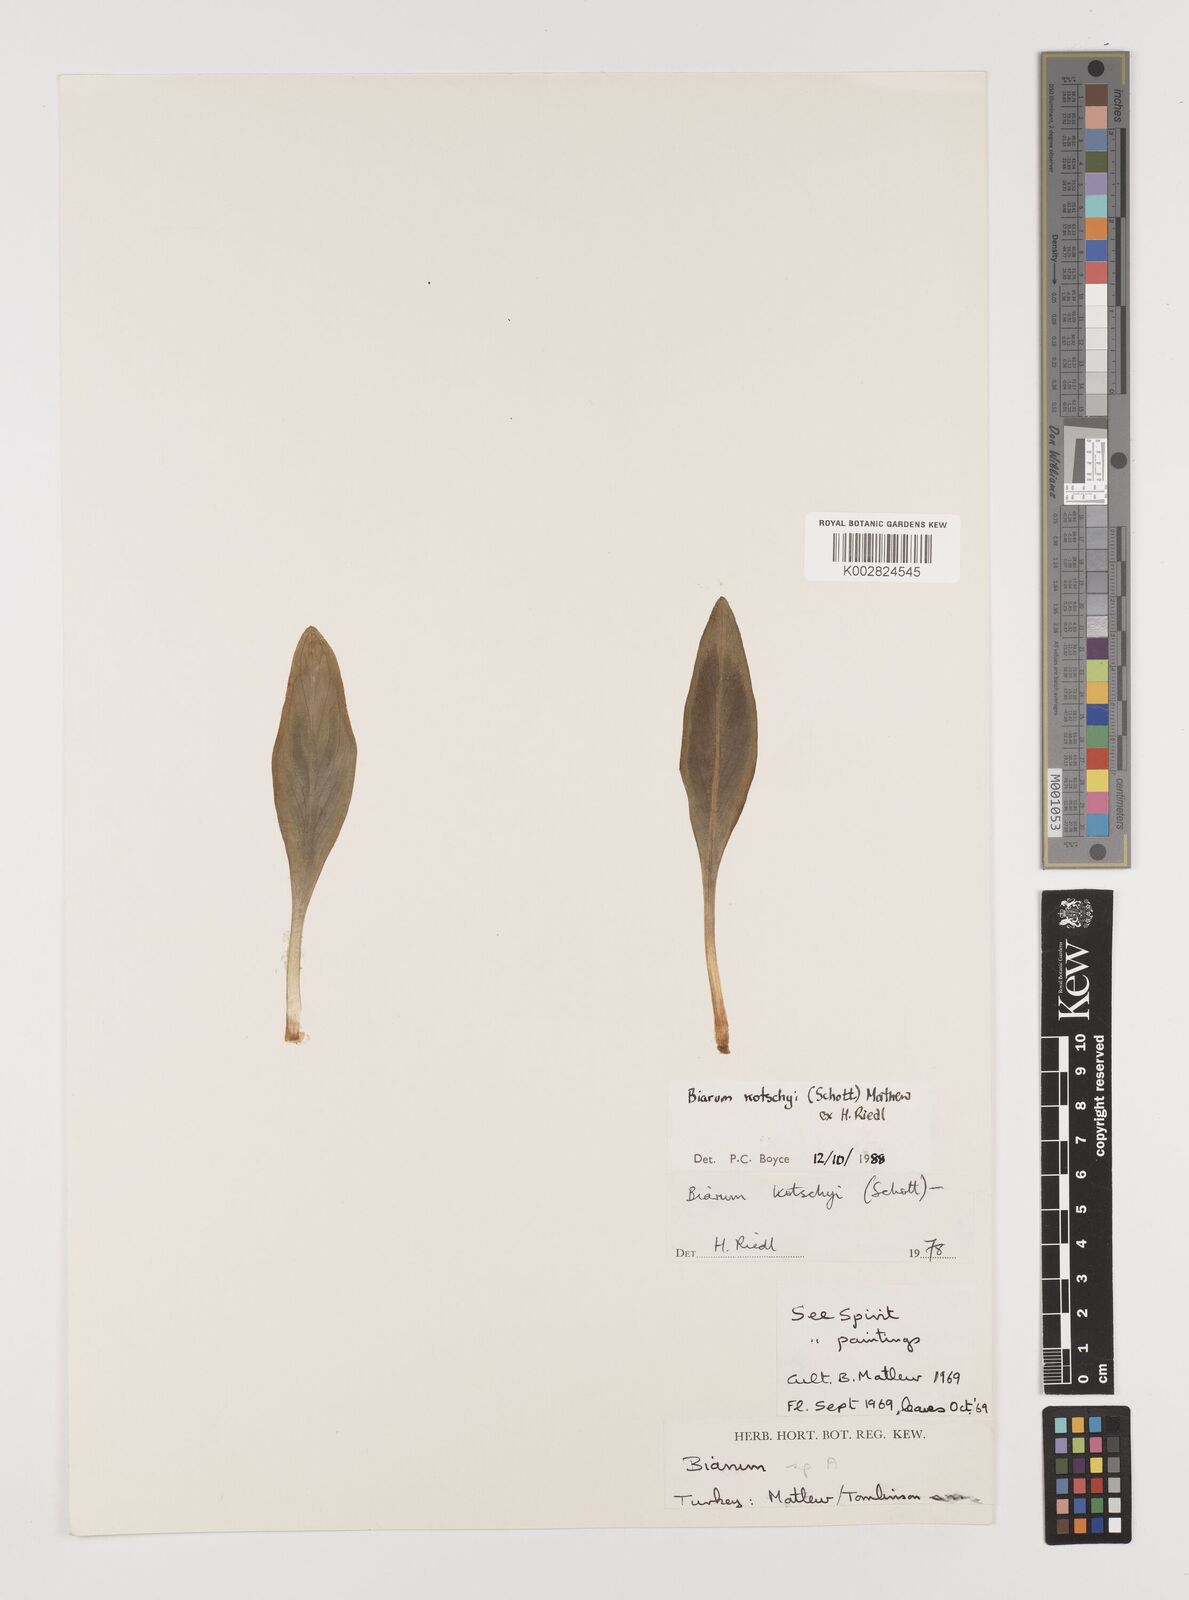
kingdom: Plantae
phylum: Tracheophyta
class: Liliopsida
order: Alismatales
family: Araceae
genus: Biarum
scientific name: Biarum kotschyi
